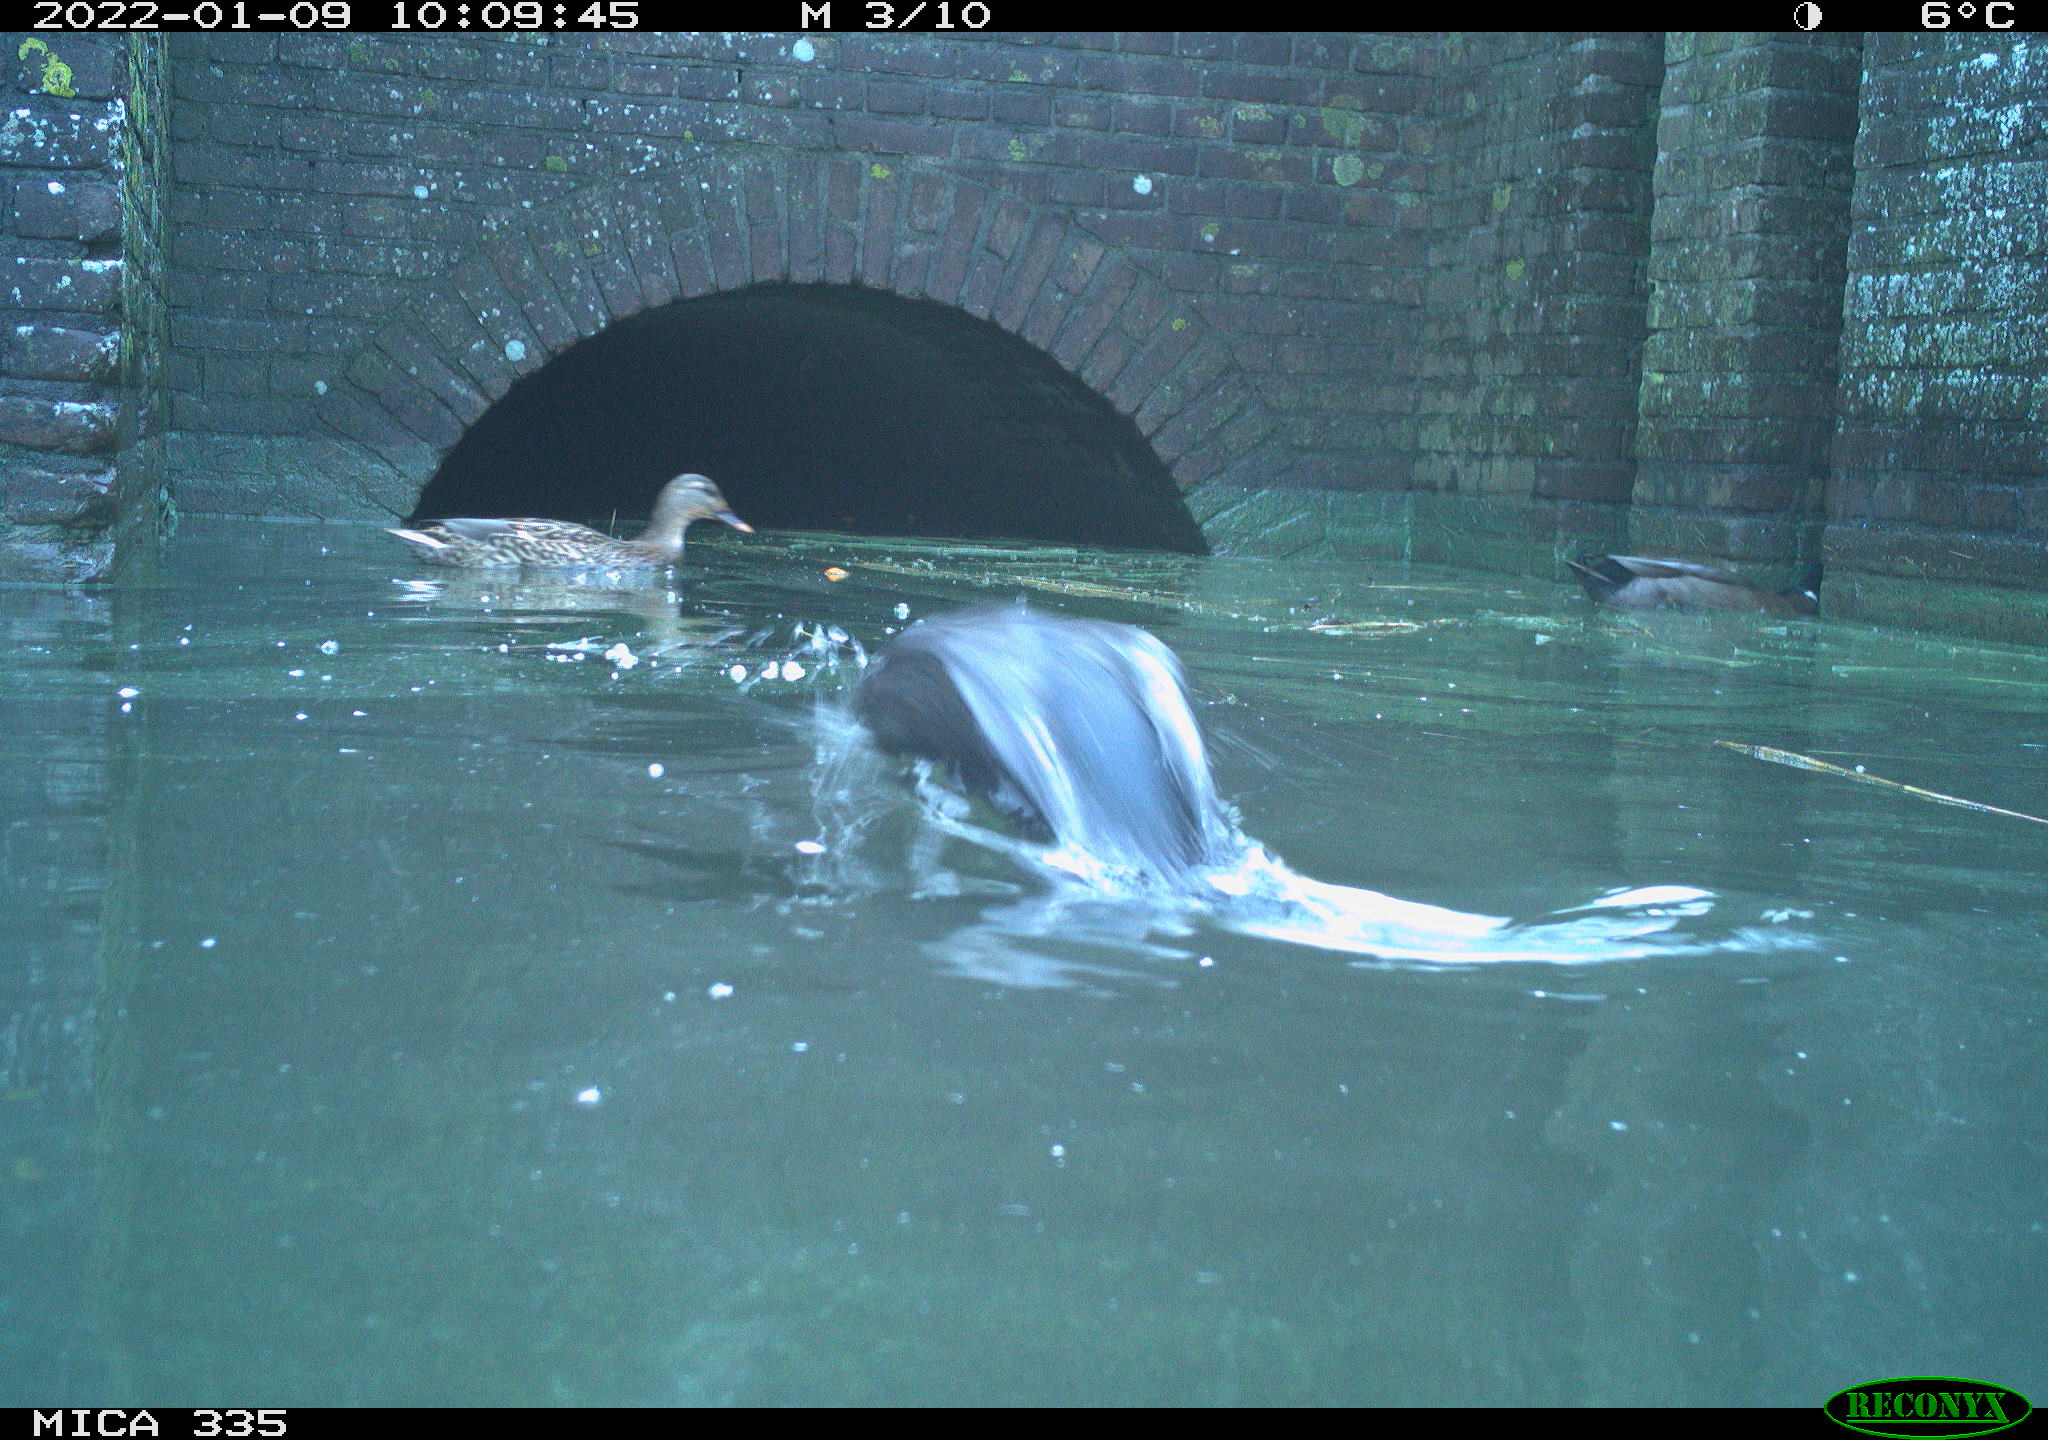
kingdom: Animalia
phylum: Chordata
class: Aves
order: Anseriformes
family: Anatidae
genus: Anas
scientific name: Anas platyrhynchos
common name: Mallard
